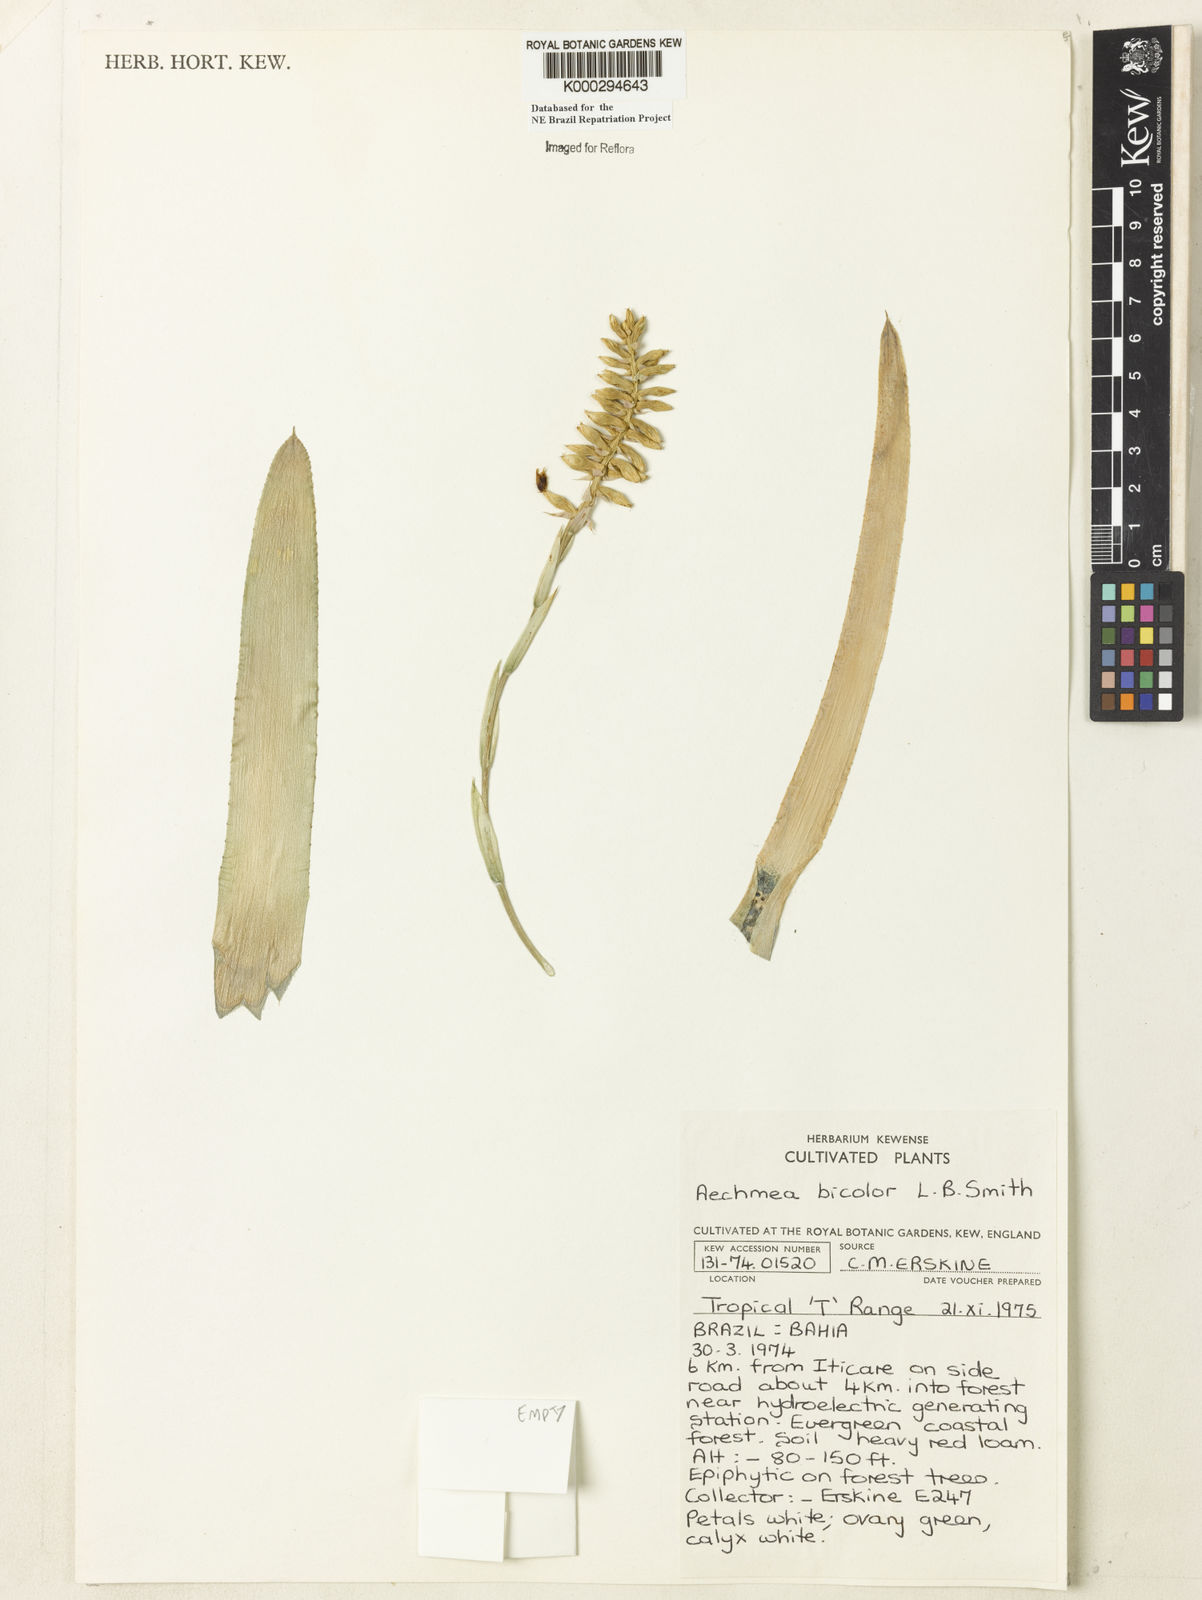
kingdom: Plantae
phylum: Tracheophyta
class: Liliopsida
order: Poales
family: Bromeliaceae
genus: Wittmackia
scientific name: Wittmackia bicolor
